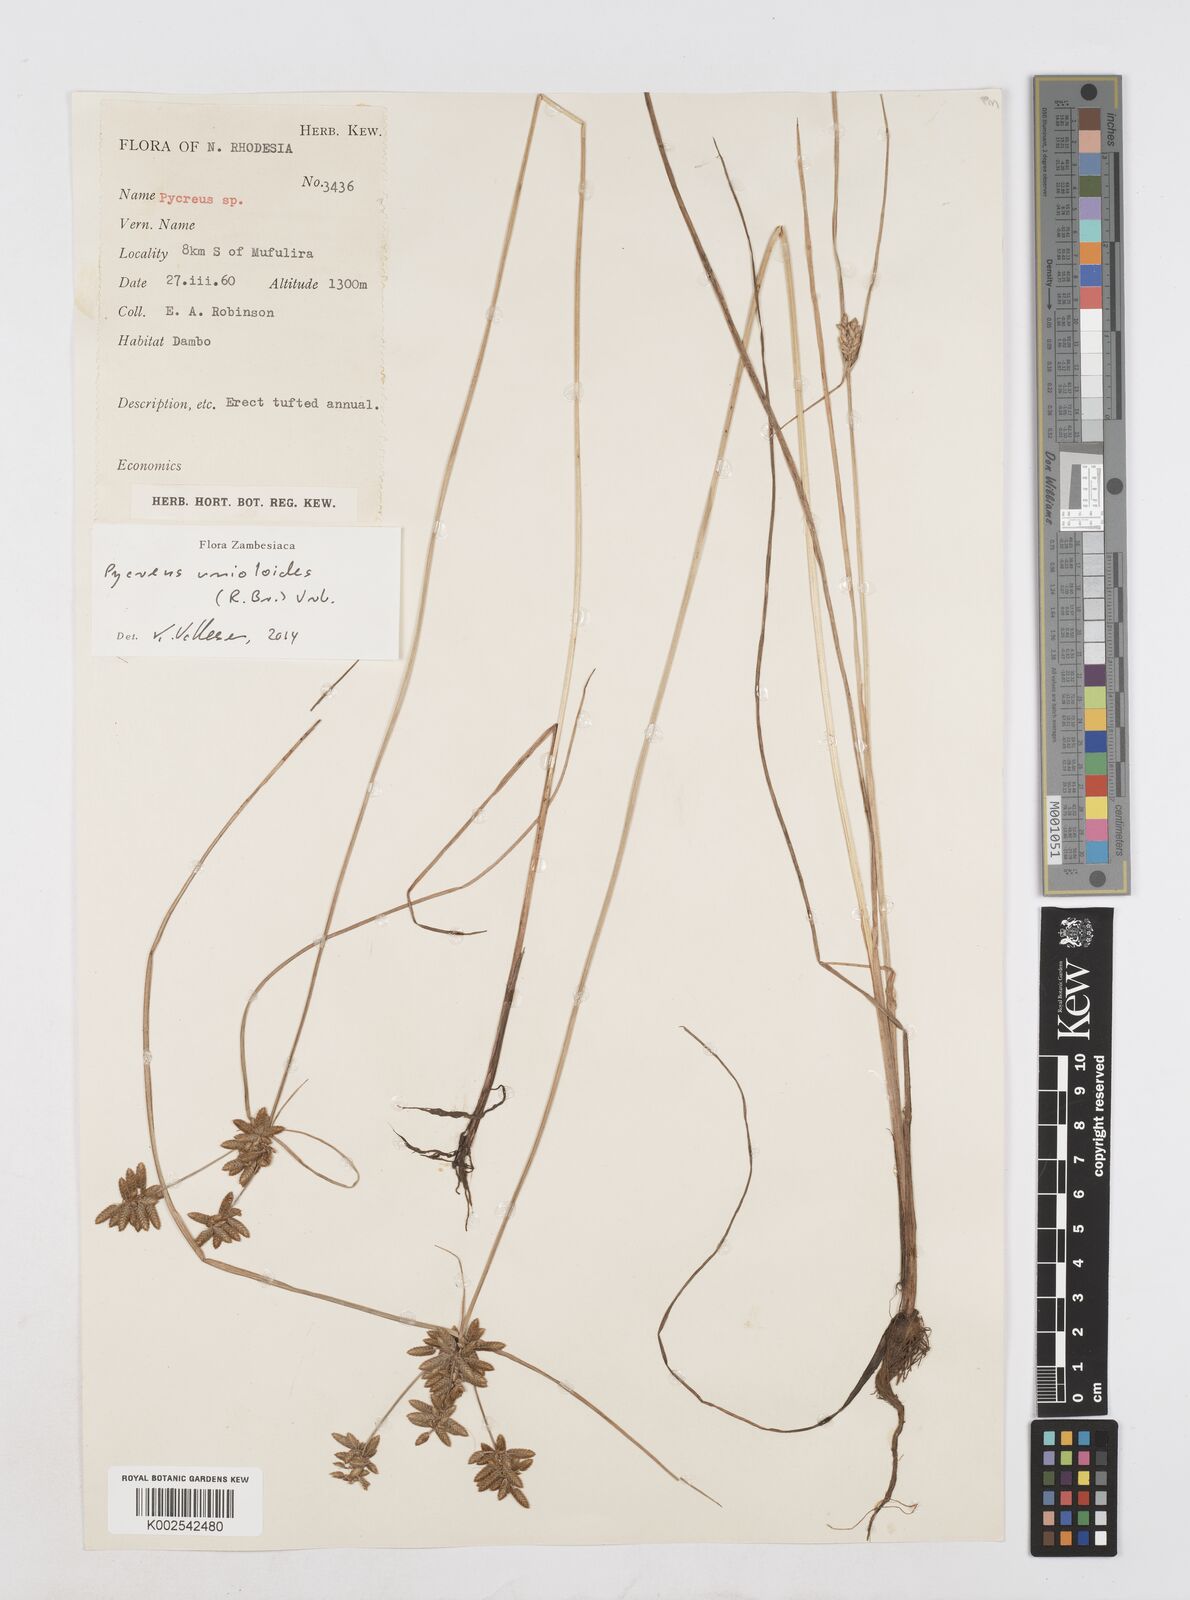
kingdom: Plantae
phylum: Tracheophyta
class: Liliopsida
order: Poales
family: Cyperaceae
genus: Cyperus
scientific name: Cyperus unioloides
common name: Uniola flatsedge
